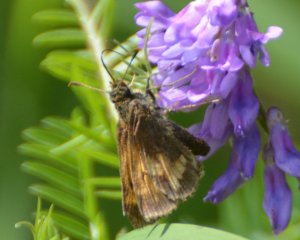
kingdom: Animalia
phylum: Arthropoda
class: Insecta
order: Lepidoptera
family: Hesperiidae
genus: Lon
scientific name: Lon hobomok
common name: Hobomok Skipper
